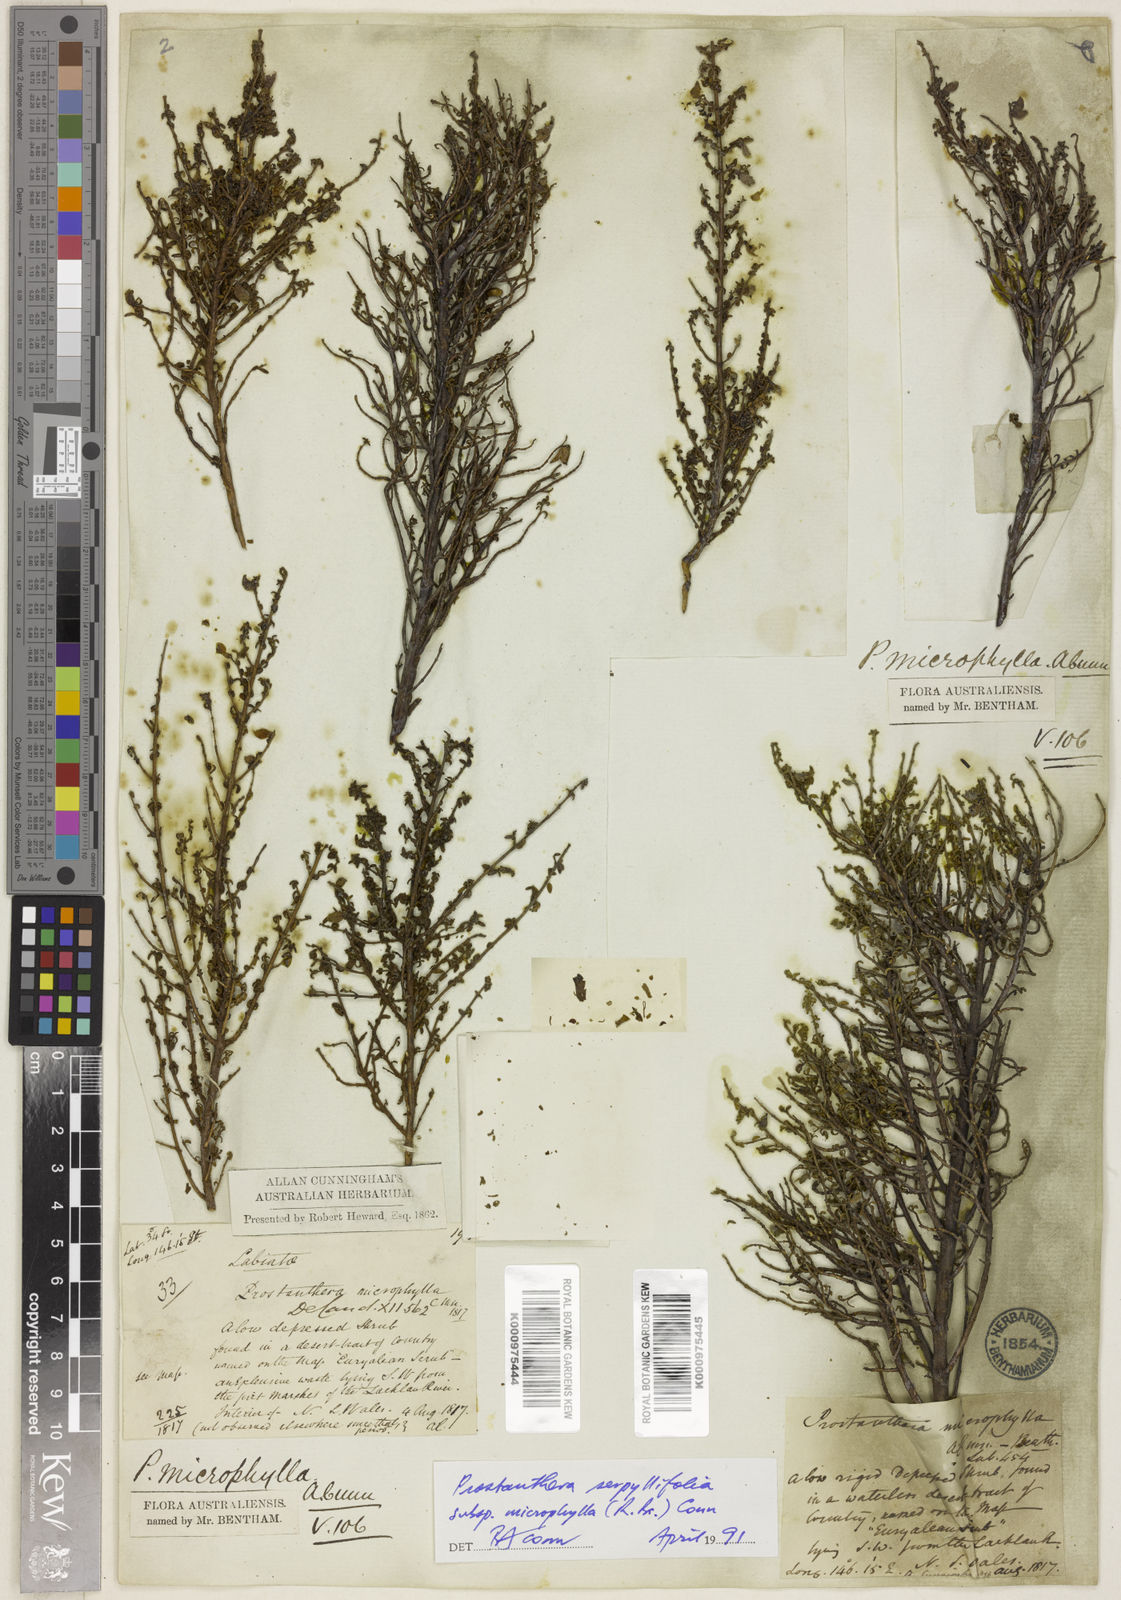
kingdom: Plantae
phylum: Tracheophyta
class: Magnoliopsida
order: Lamiales
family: Lamiaceae
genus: Prostanthera
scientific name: Prostanthera microphylla
